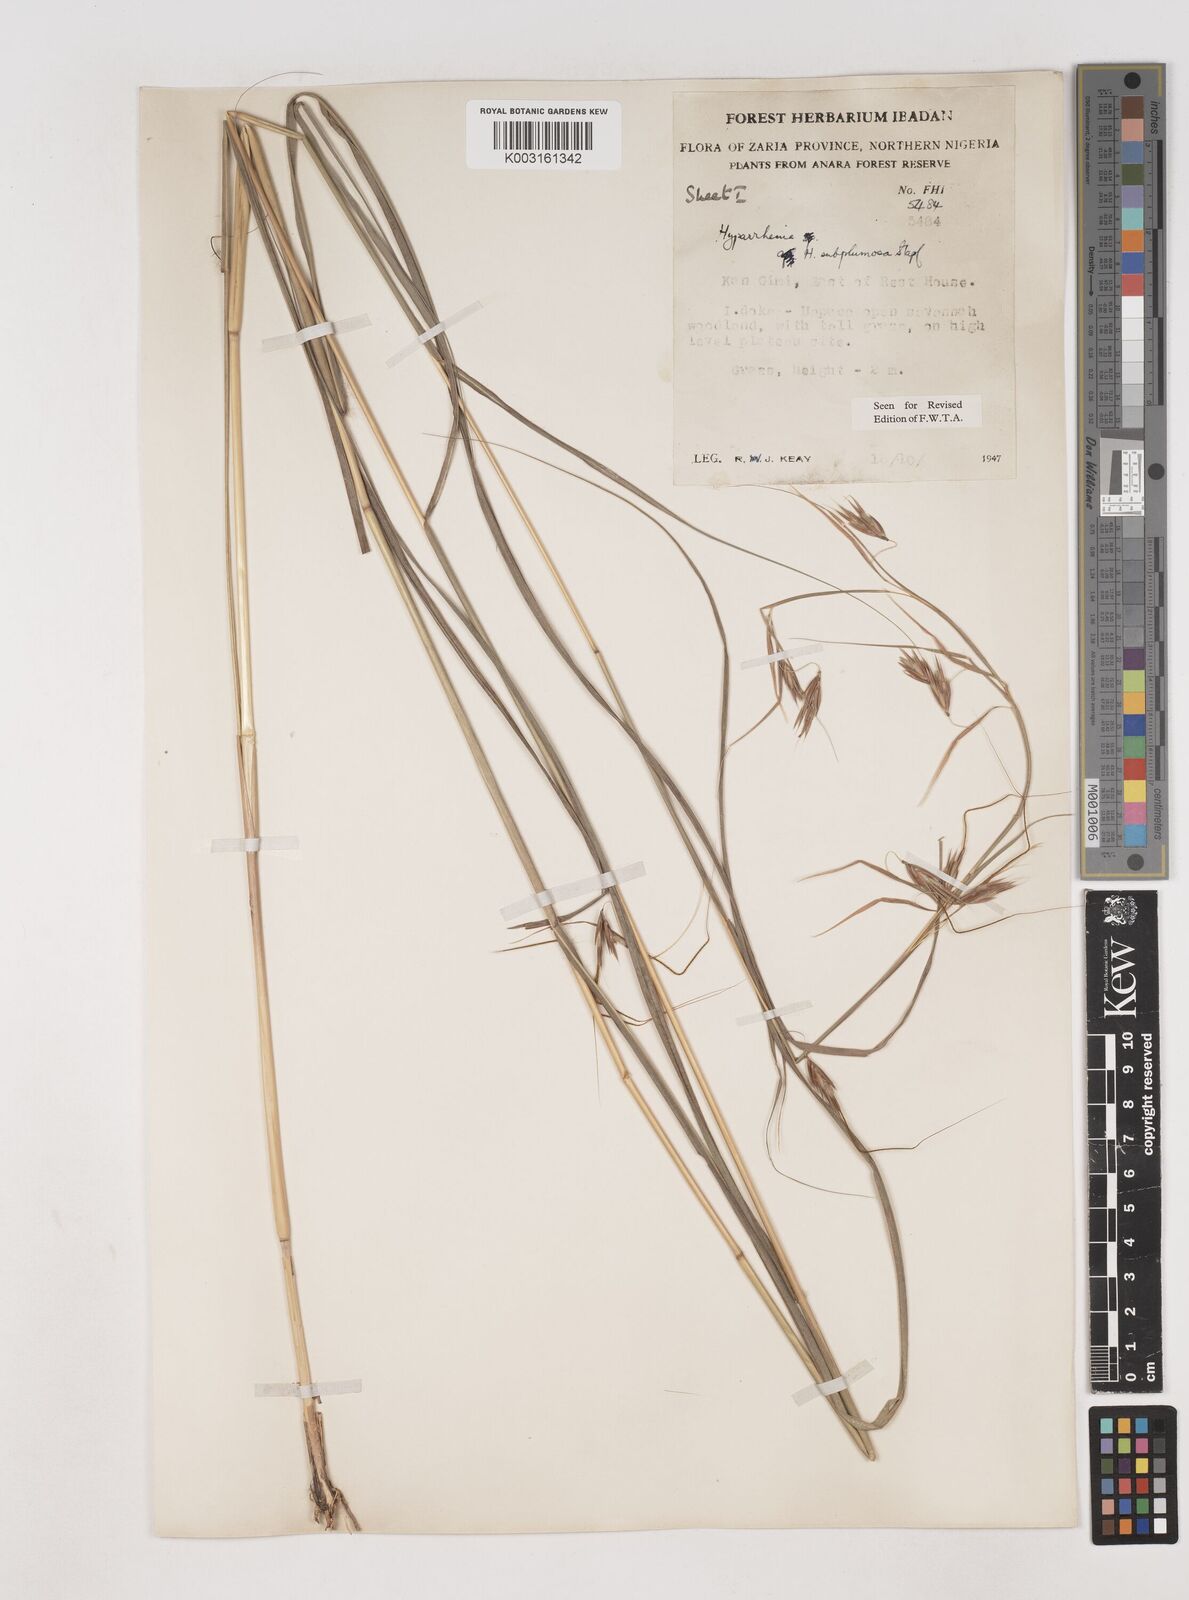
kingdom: Plantae
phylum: Tracheophyta
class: Liliopsida
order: Poales
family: Poaceae
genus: Hyparrhenia
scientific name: Hyparrhenia subplumosa
